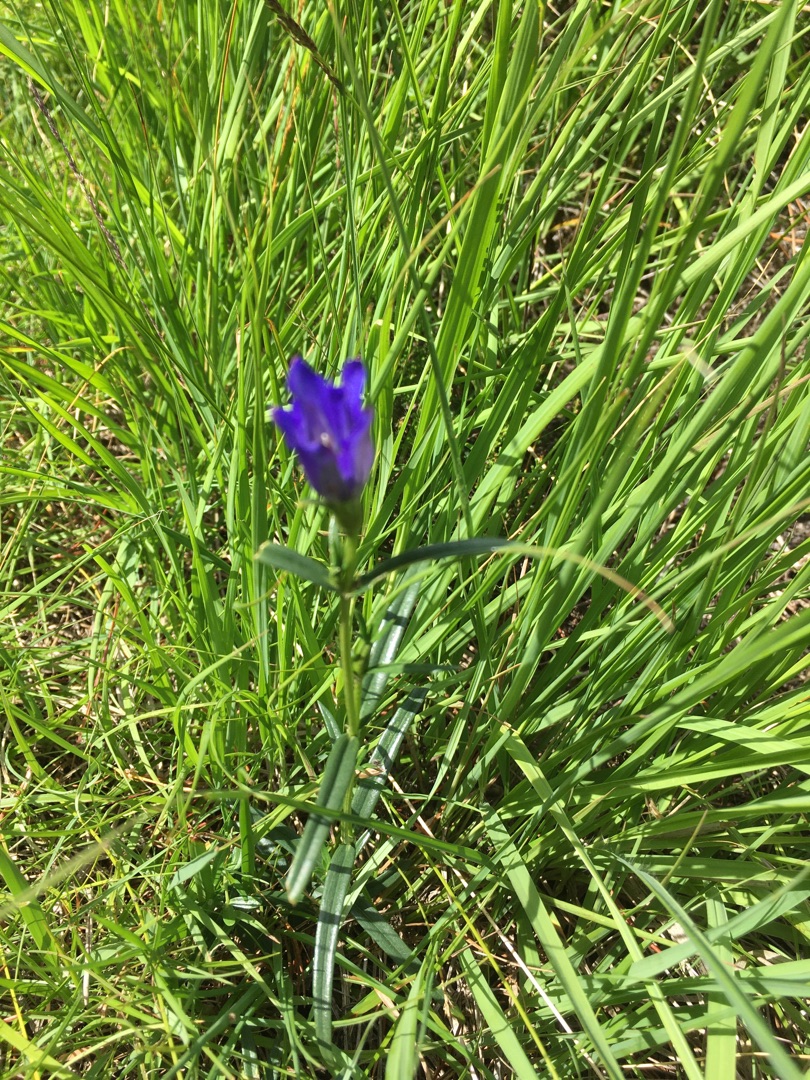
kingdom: Plantae
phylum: Tracheophyta
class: Magnoliopsida
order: Gentianales
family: Gentianaceae
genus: Gentiana
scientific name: Gentiana pneumonanthe
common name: Klokke-ensian
